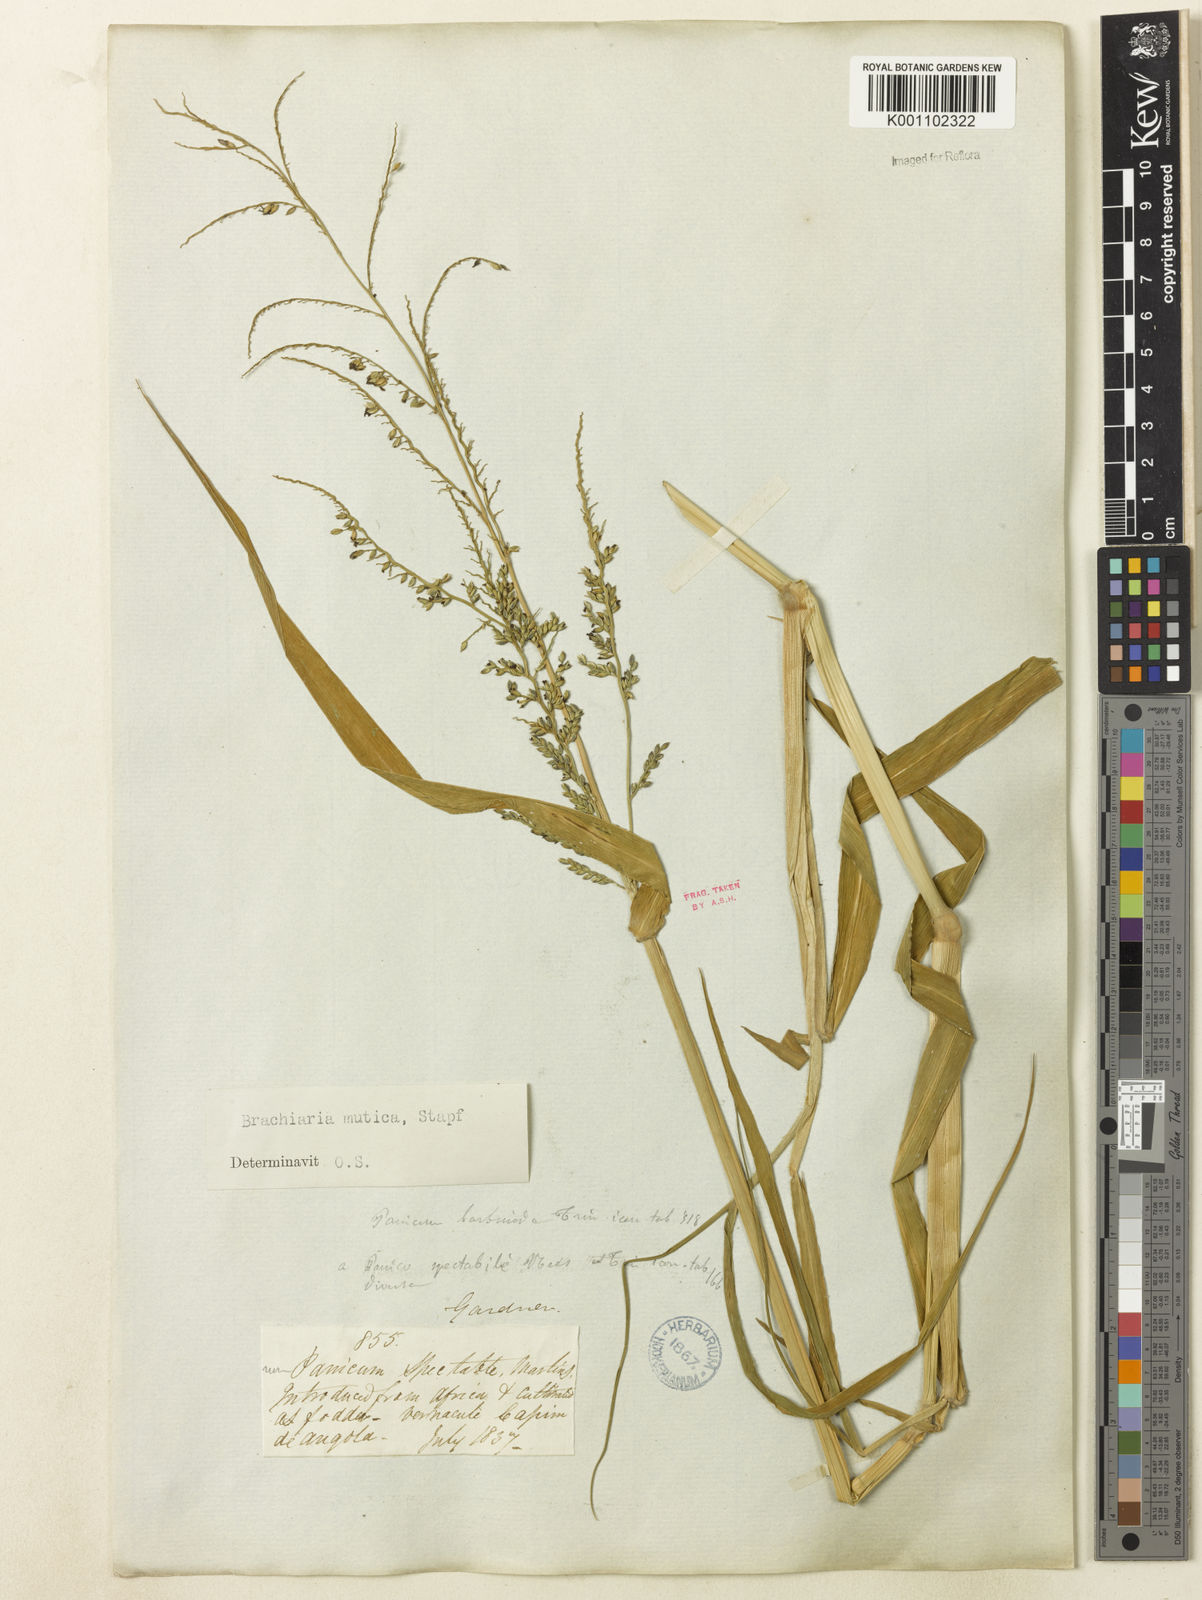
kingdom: Plantae
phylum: Tracheophyta
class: Liliopsida
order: Poales
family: Poaceae
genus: Urochloa
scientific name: Urochloa mutica
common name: Para grass
